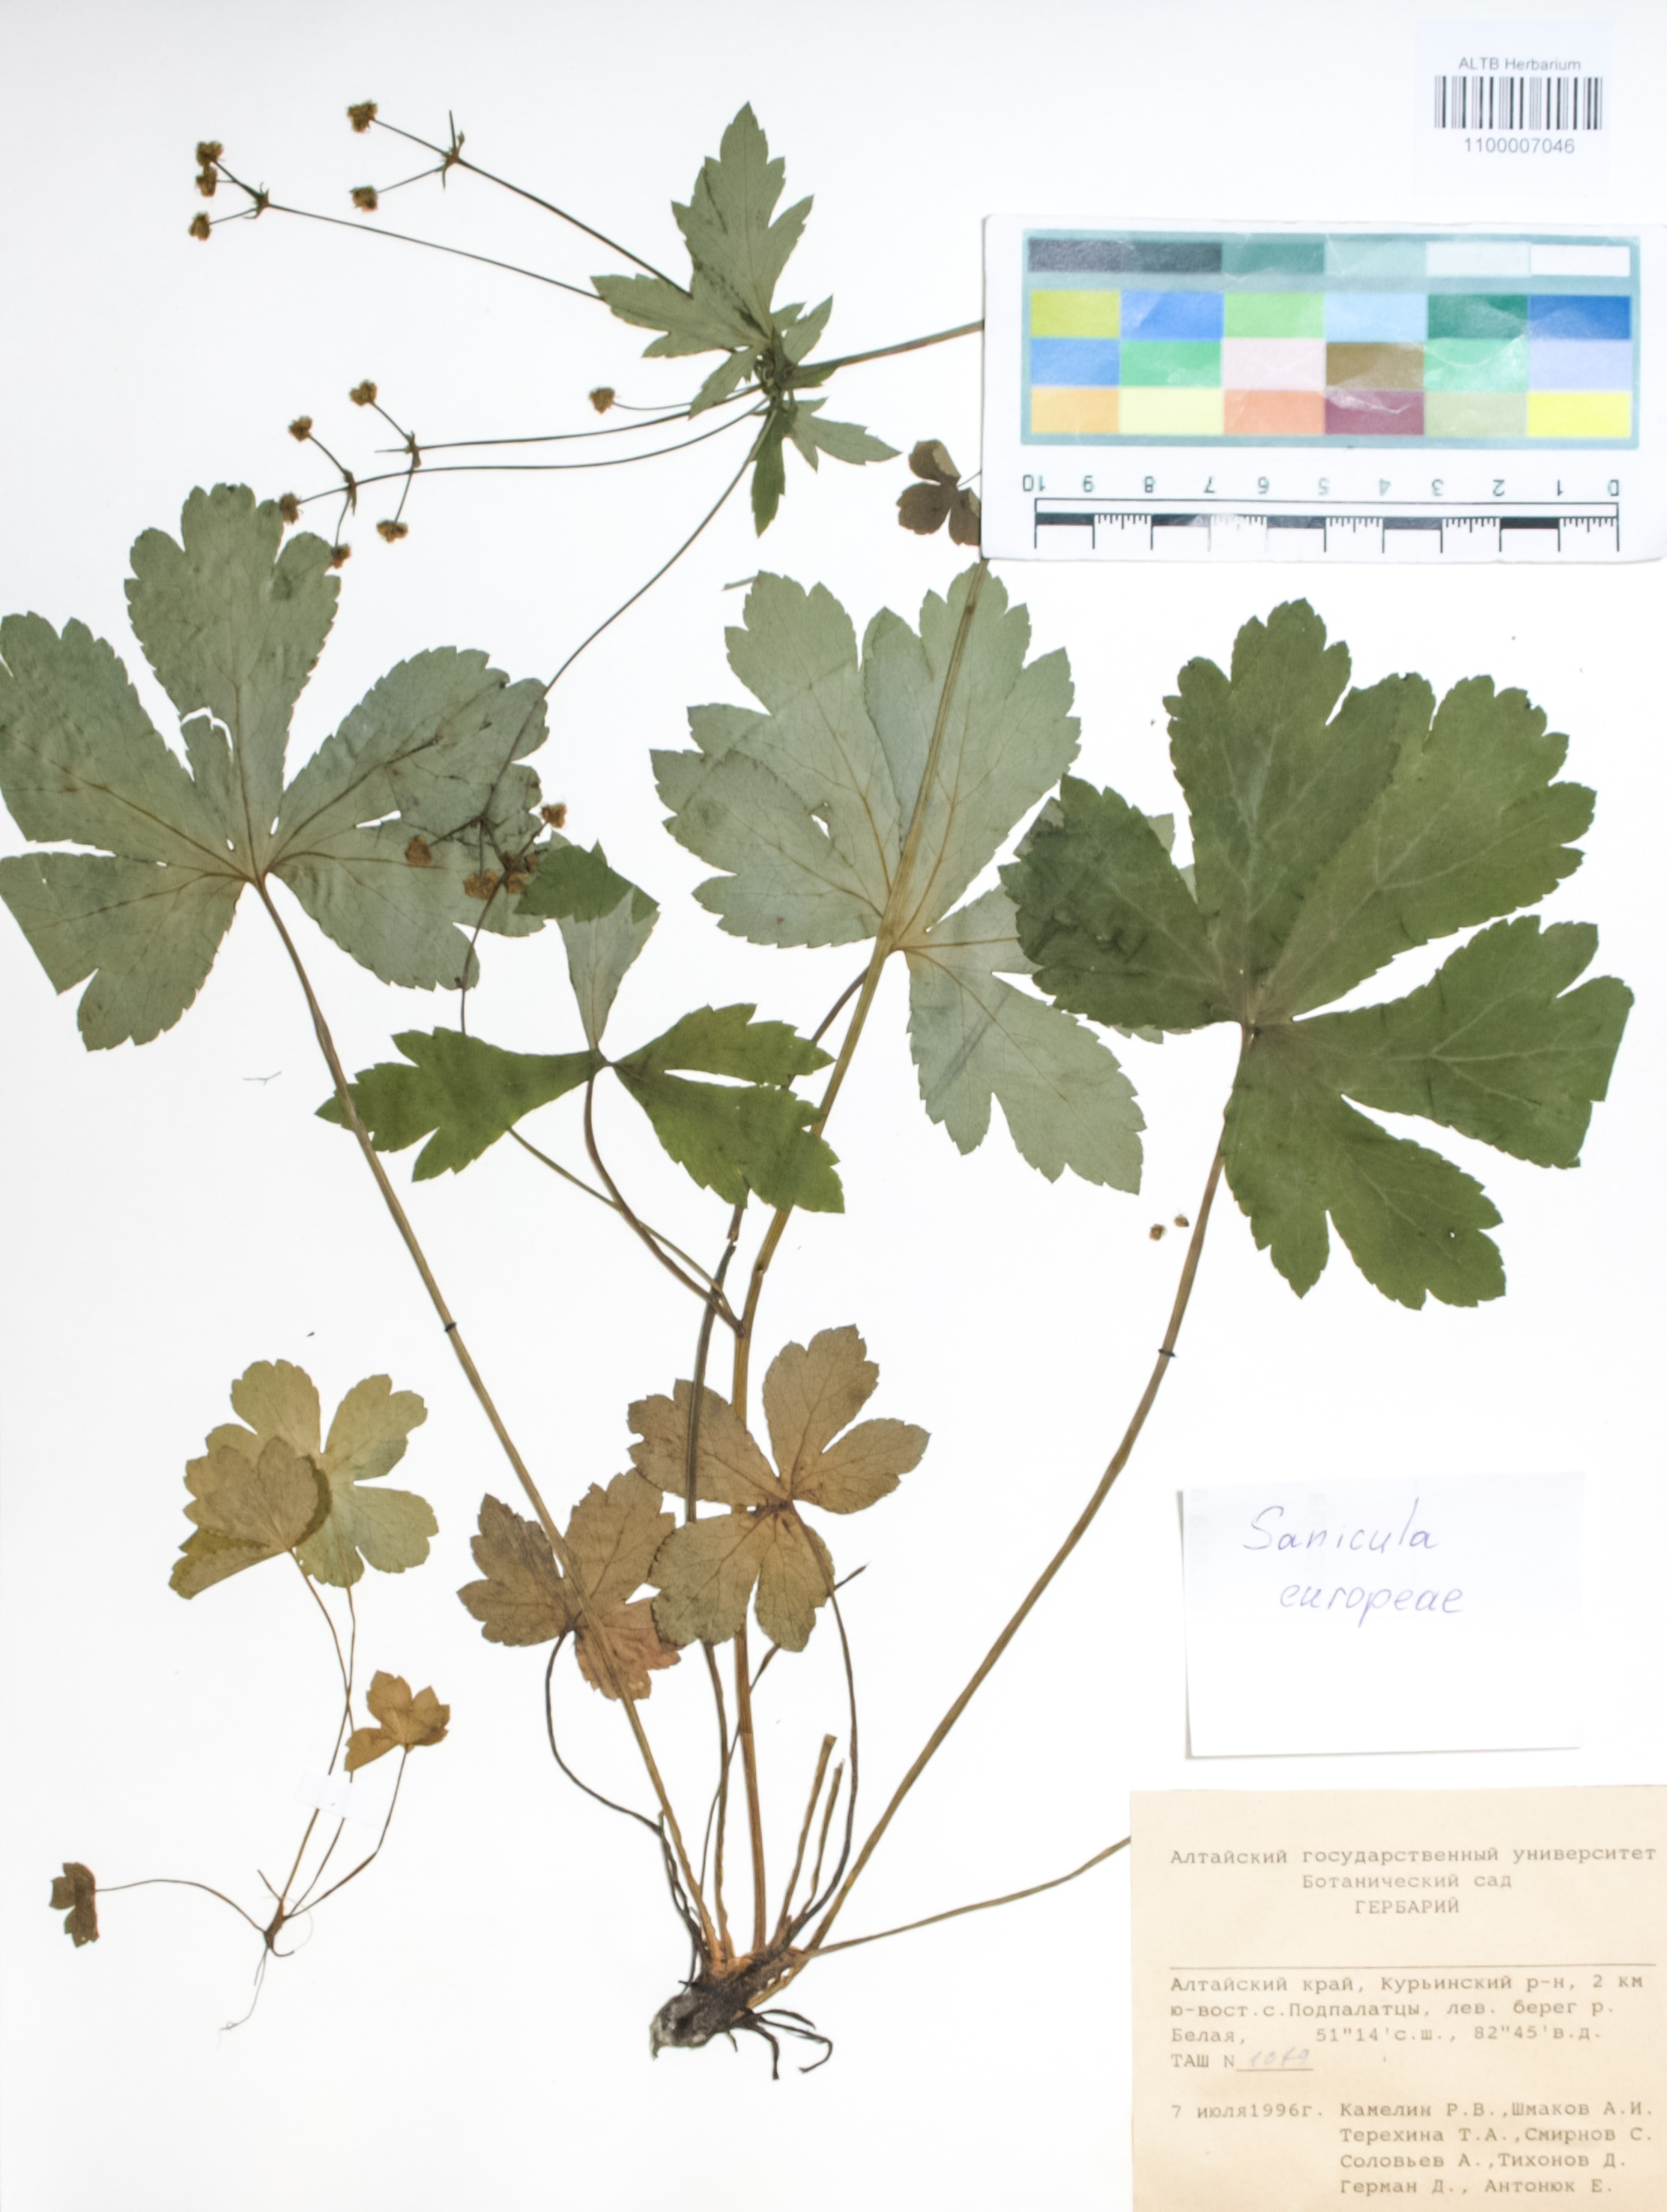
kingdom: Plantae
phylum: Tracheophyta
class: Magnoliopsida
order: Apiales
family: Apiaceae
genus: Sanicula
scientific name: Sanicula europaea
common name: Sanicle
